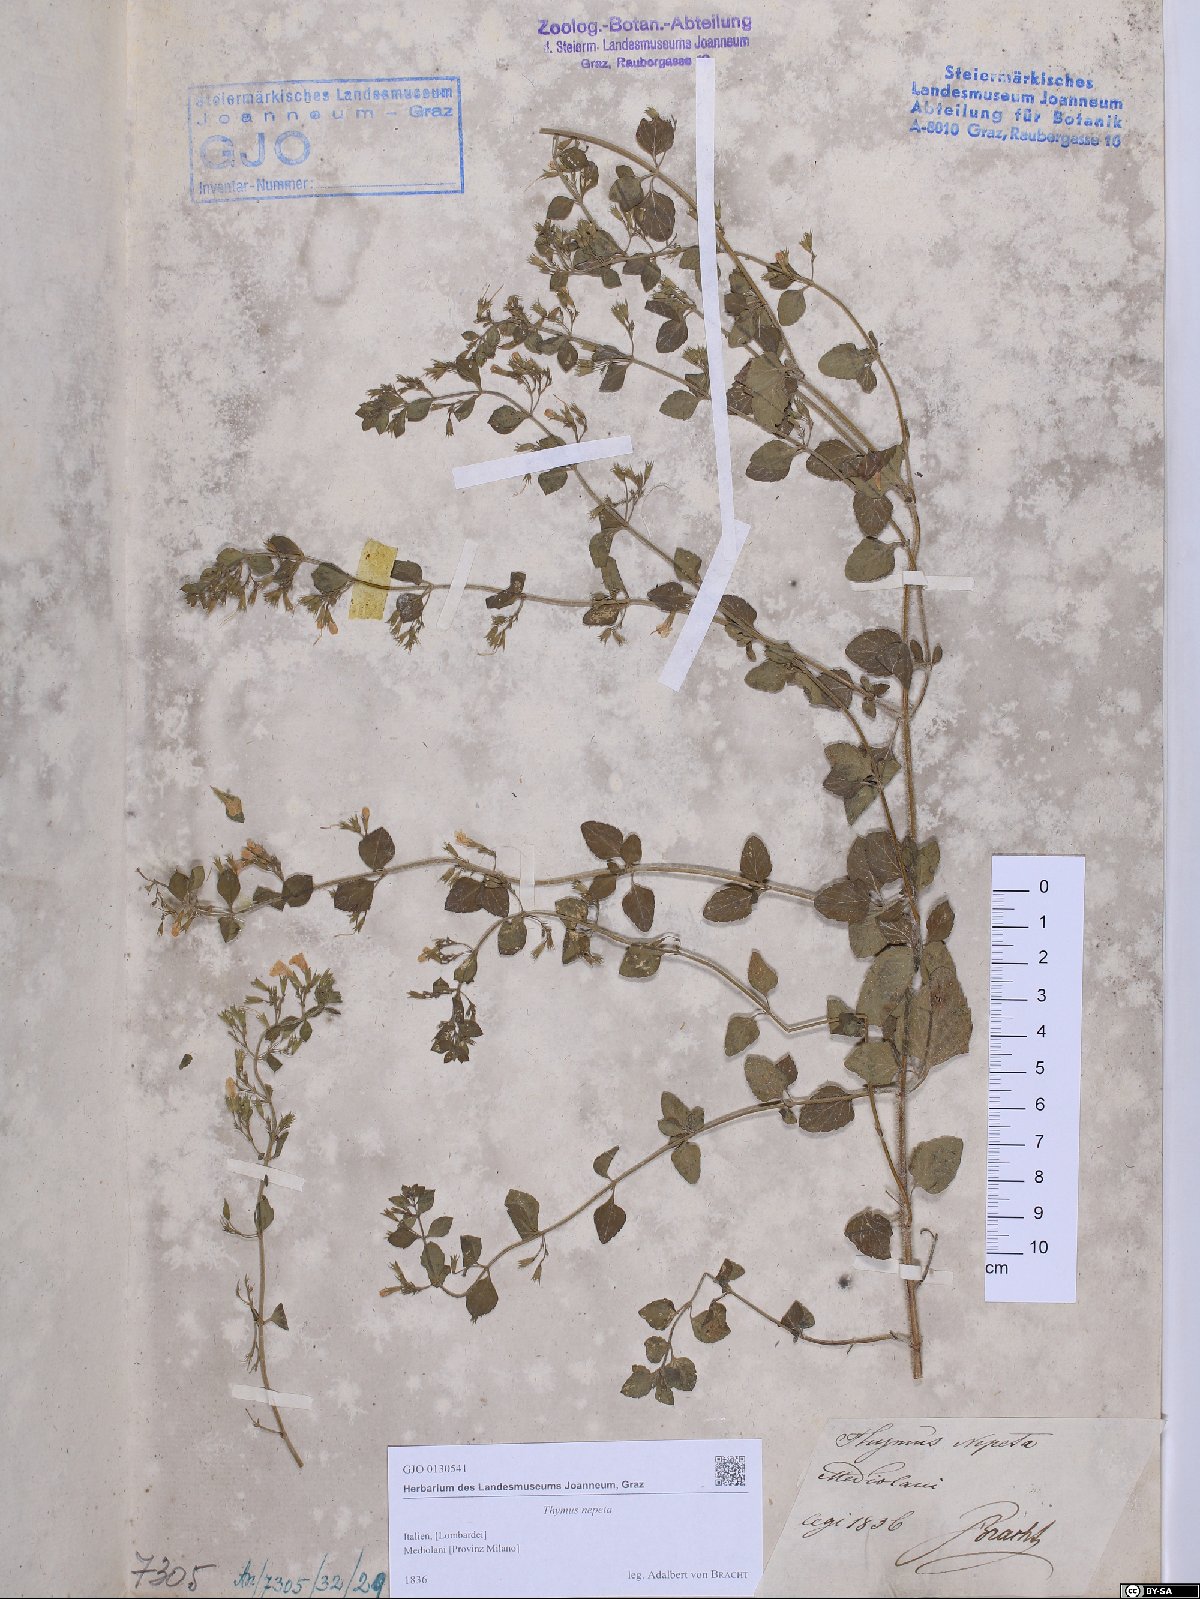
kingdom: Plantae
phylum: Tracheophyta
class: Magnoliopsida
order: Lamiales
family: Lamiaceae
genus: Clinopodium
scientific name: Clinopodium nepeta
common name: Lesser calamint
